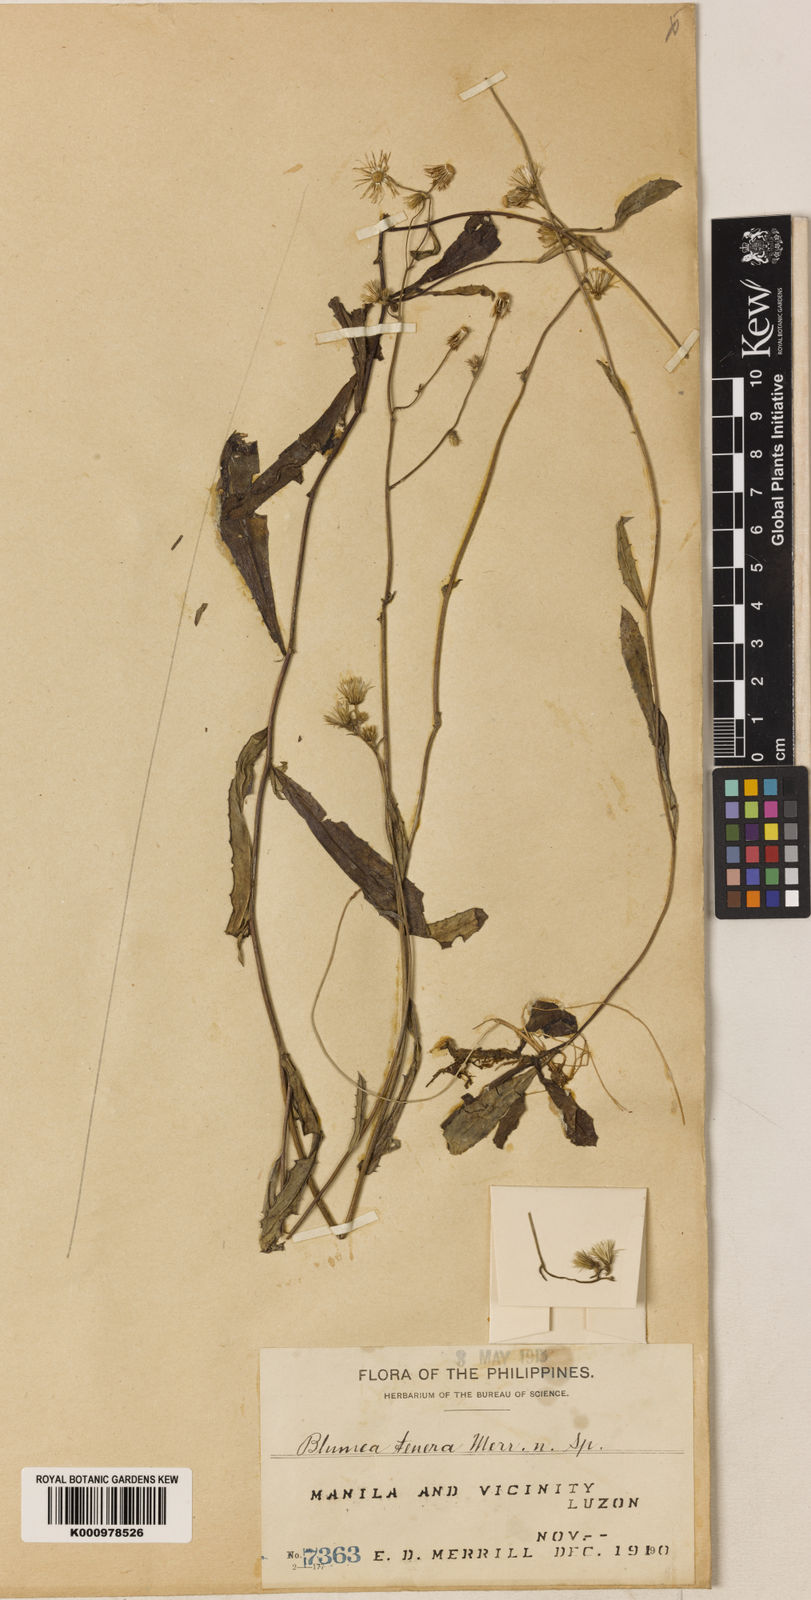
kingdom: Plantae
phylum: Tracheophyta
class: Magnoliopsida
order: Asterales
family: Asteraceae
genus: Blumea
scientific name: Blumea saxatilis
